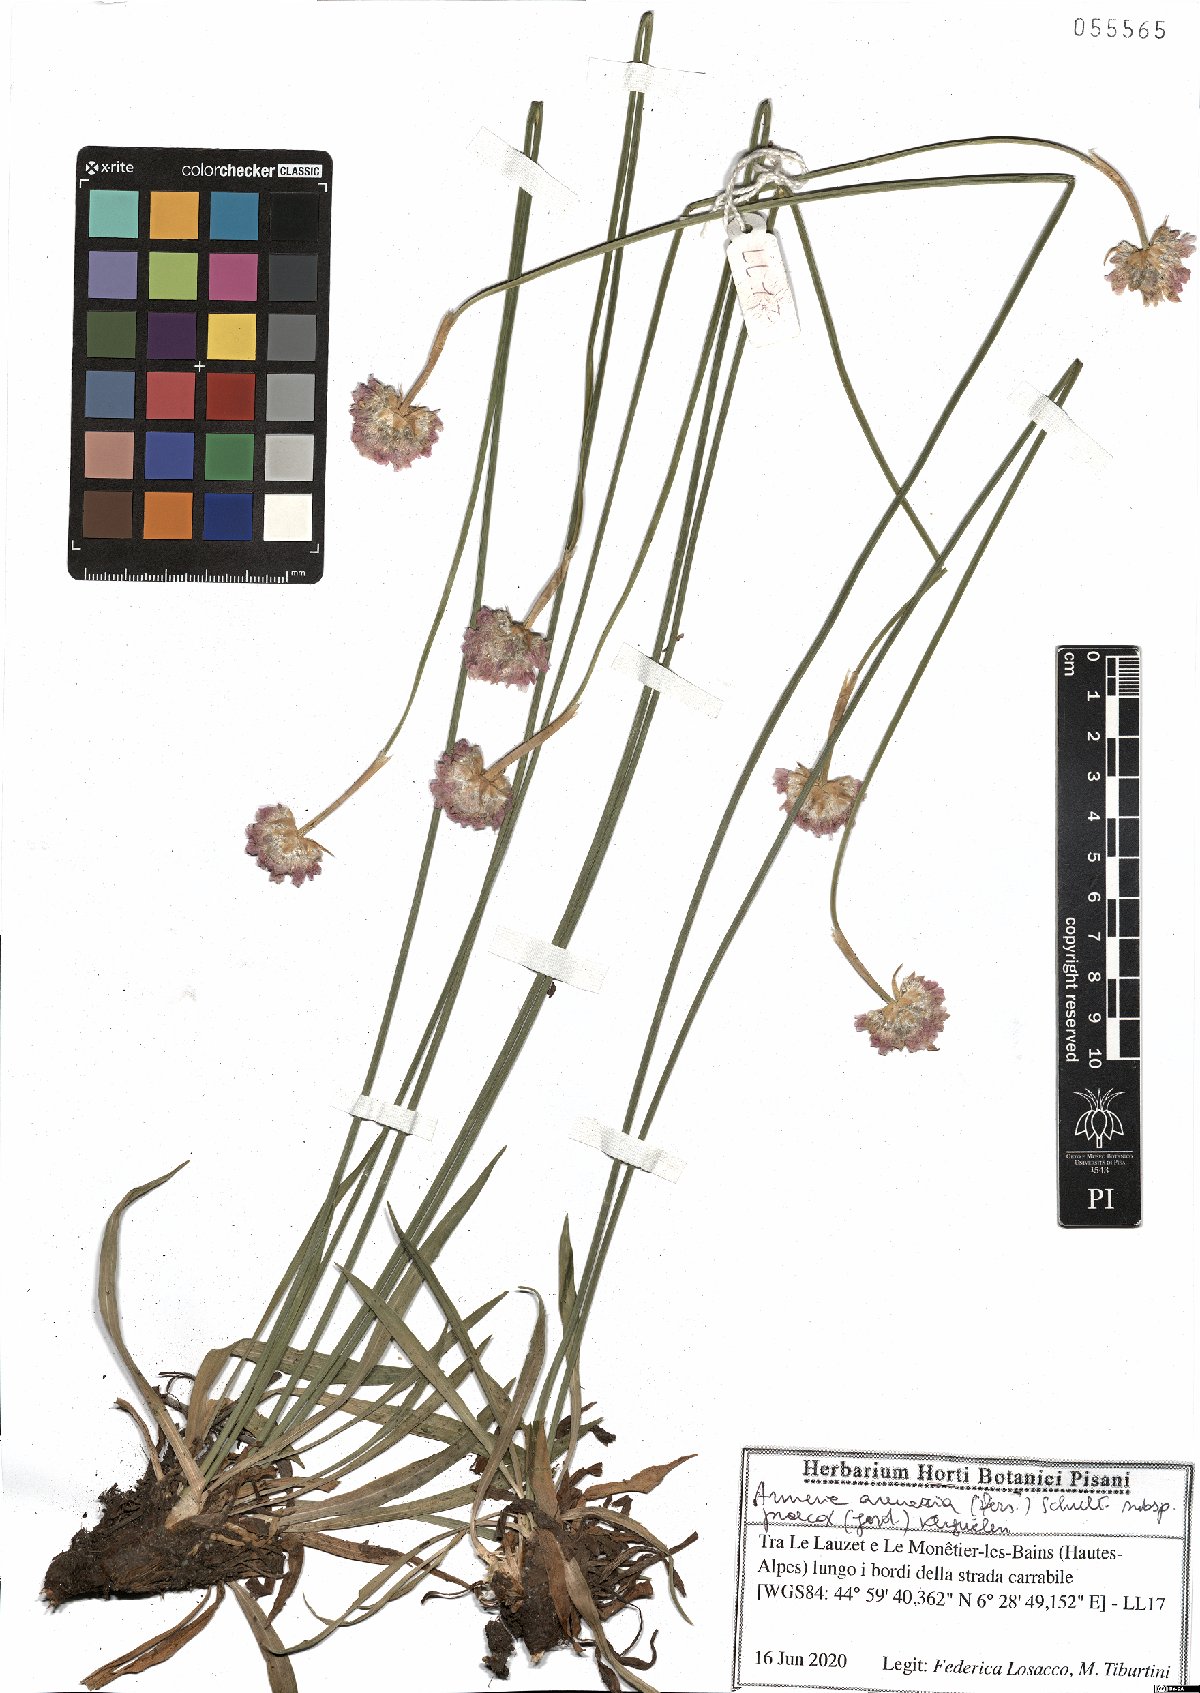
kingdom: Plantae
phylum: Tracheophyta
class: Magnoliopsida
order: Caryophyllales
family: Plumbaginaceae
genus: Armeria
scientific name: Armeria arenaria
